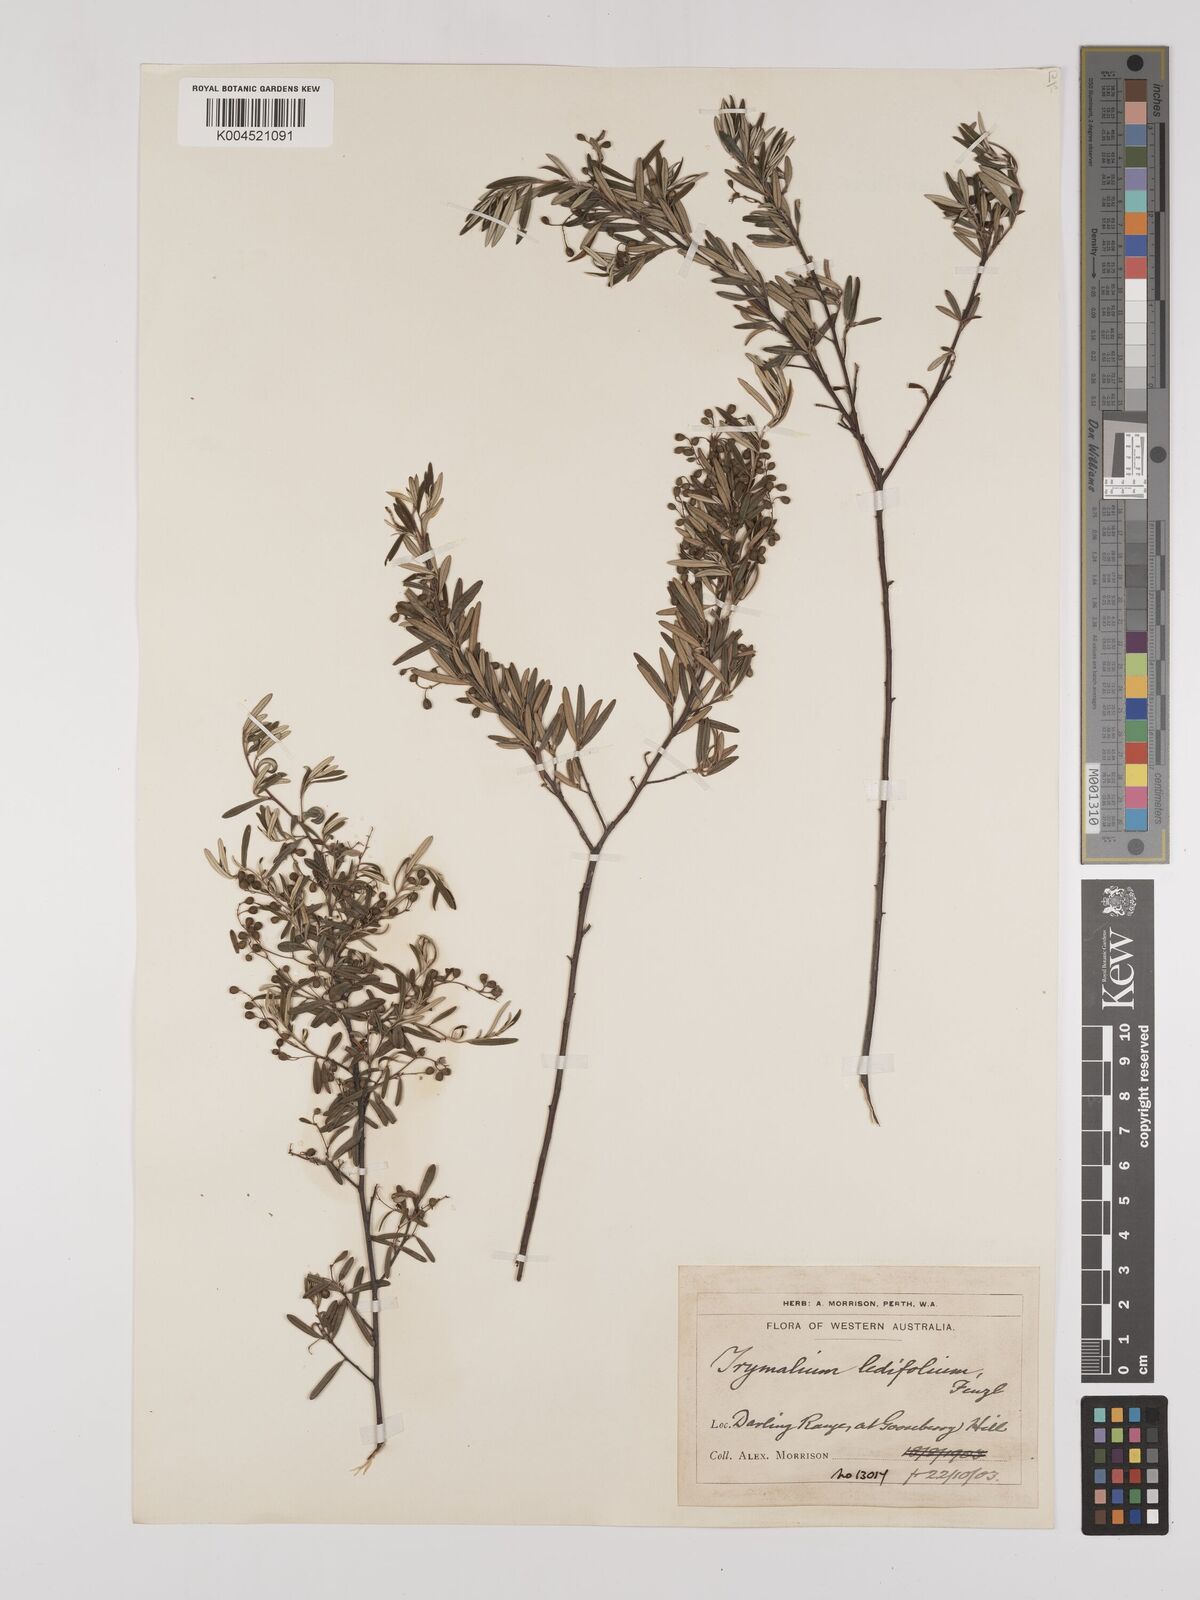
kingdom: Plantae
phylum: Tracheophyta
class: Magnoliopsida
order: Rosales
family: Rhamnaceae
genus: Trymalium
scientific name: Trymalium ledifolium
